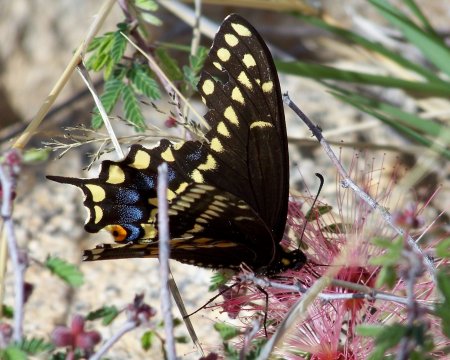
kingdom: Animalia
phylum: Arthropoda
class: Insecta
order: Lepidoptera
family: Papilionidae
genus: Papilio
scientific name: Papilio polyxenes
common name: Black Swallowtail
